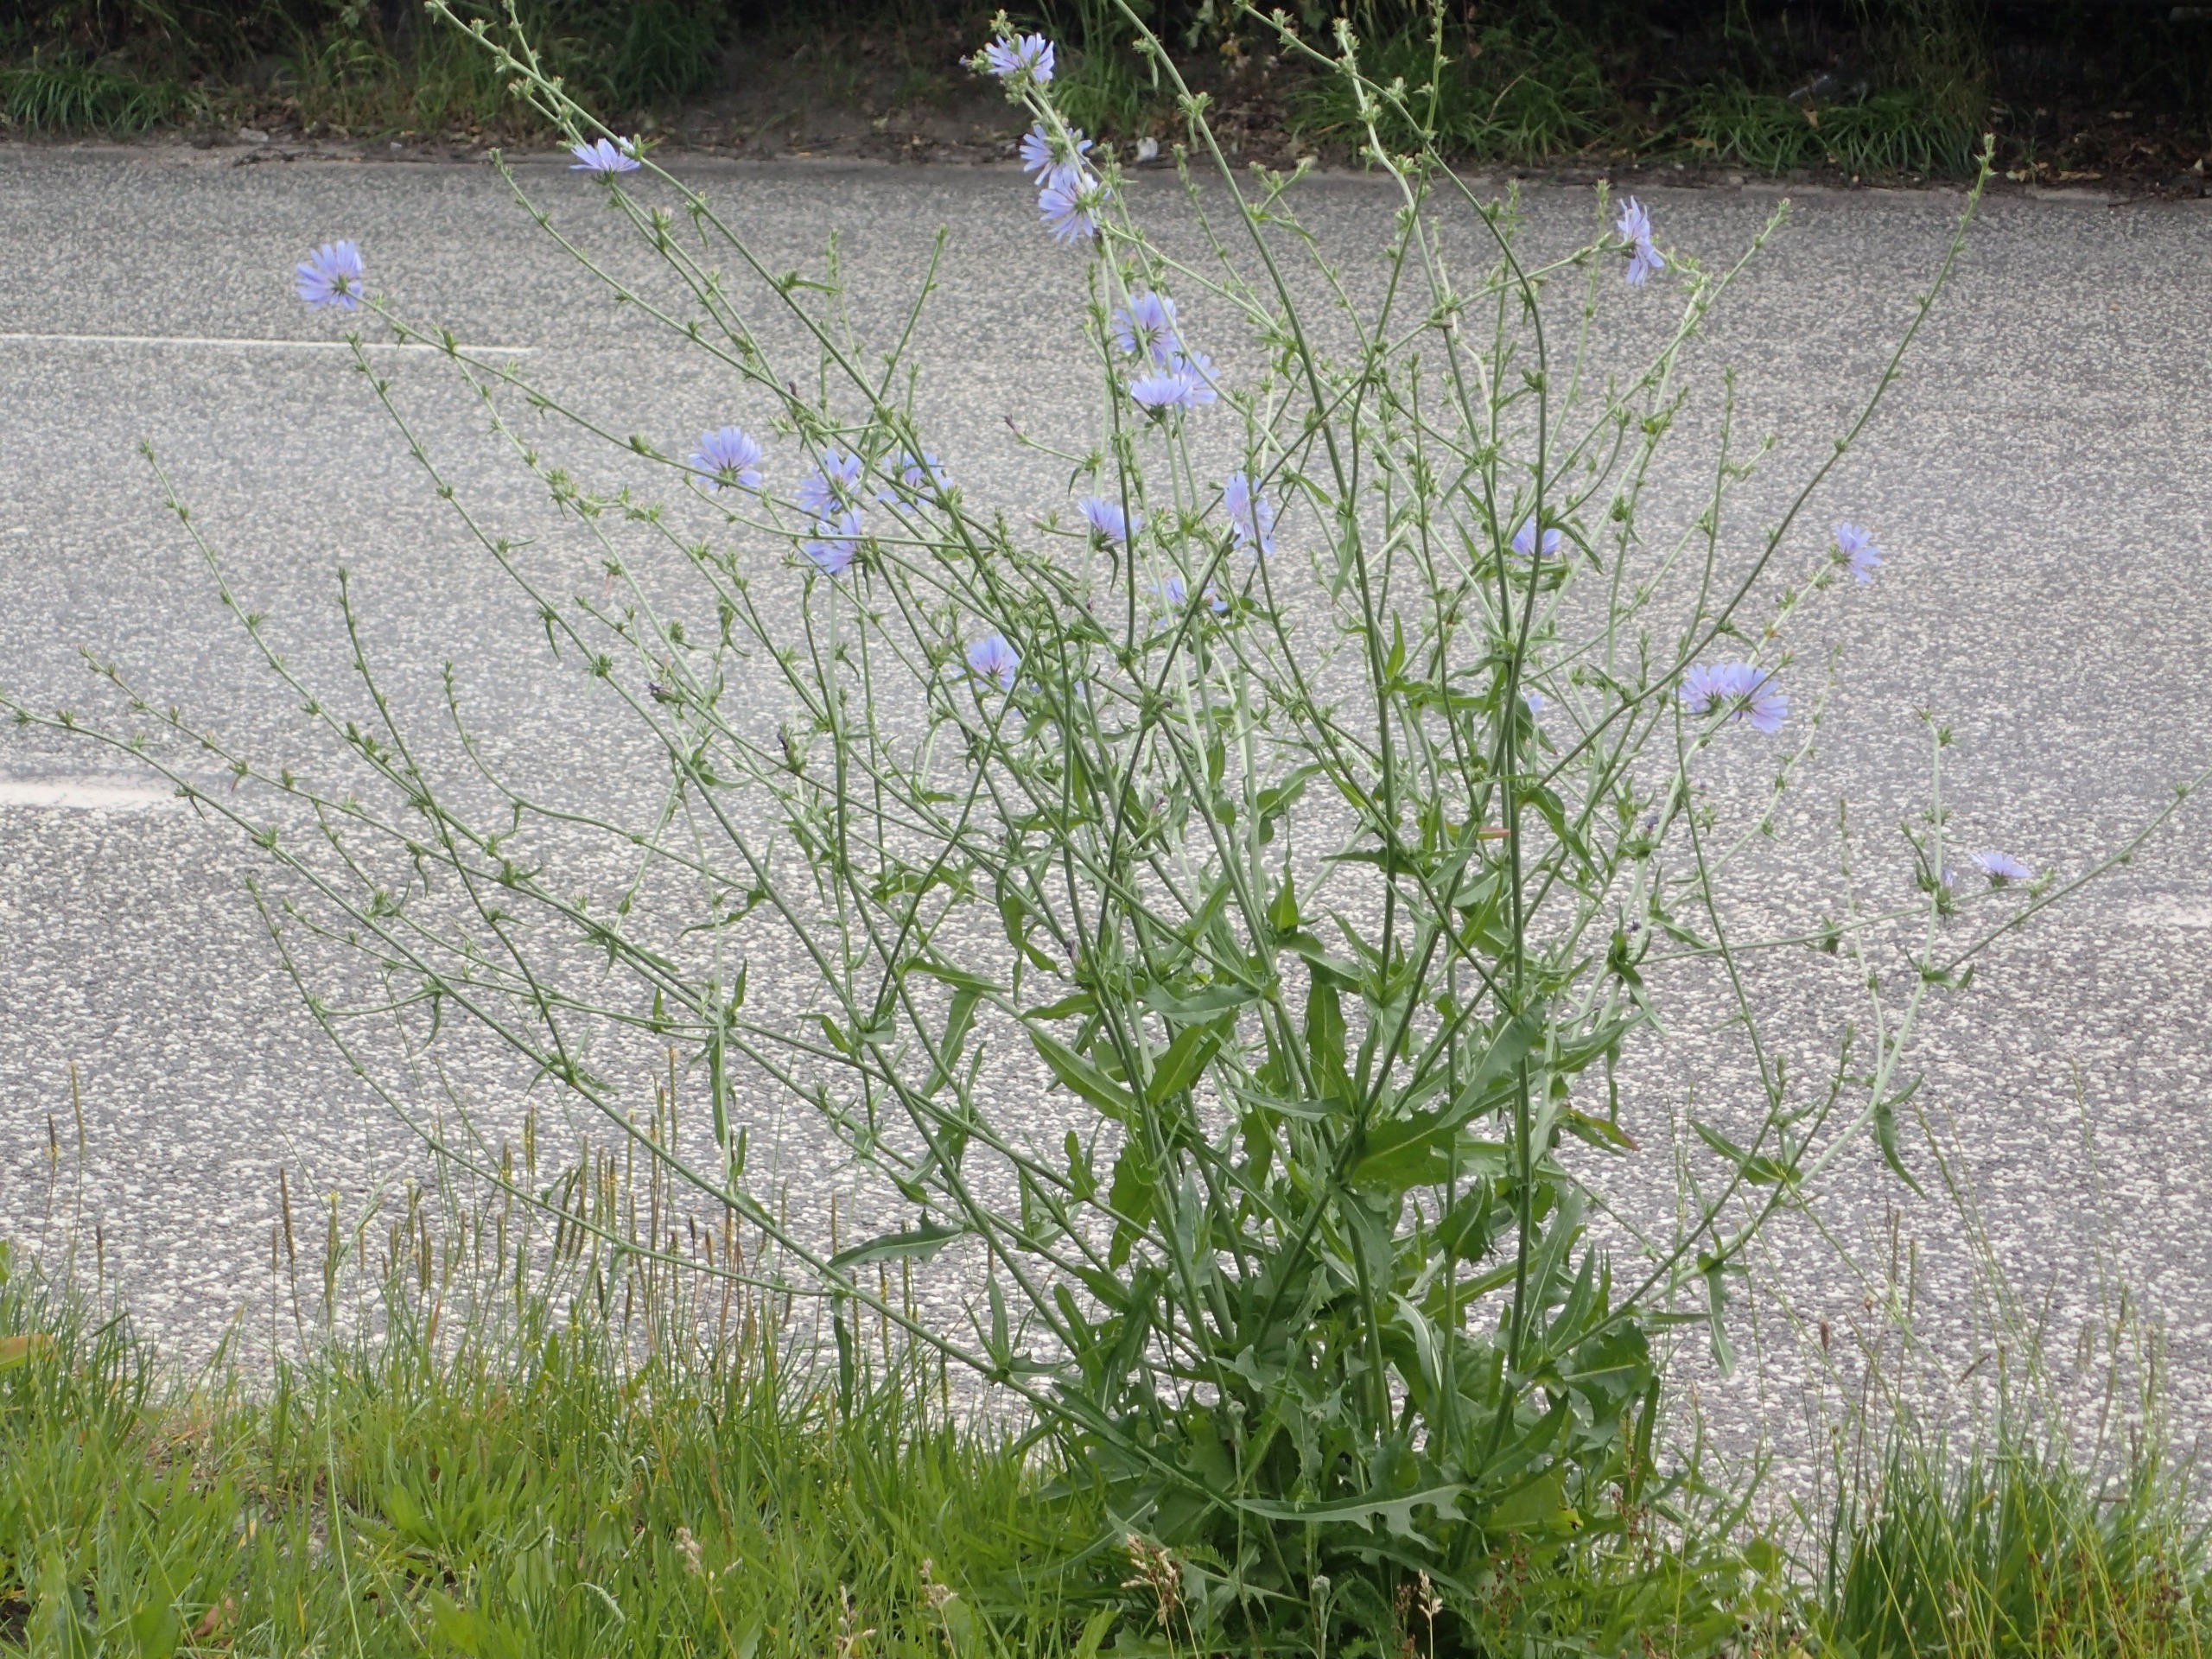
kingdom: Plantae
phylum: Tracheophyta
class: Magnoliopsida
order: Asterales
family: Asteraceae
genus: Cichorium
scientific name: Cichorium intybus
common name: Cikorie
